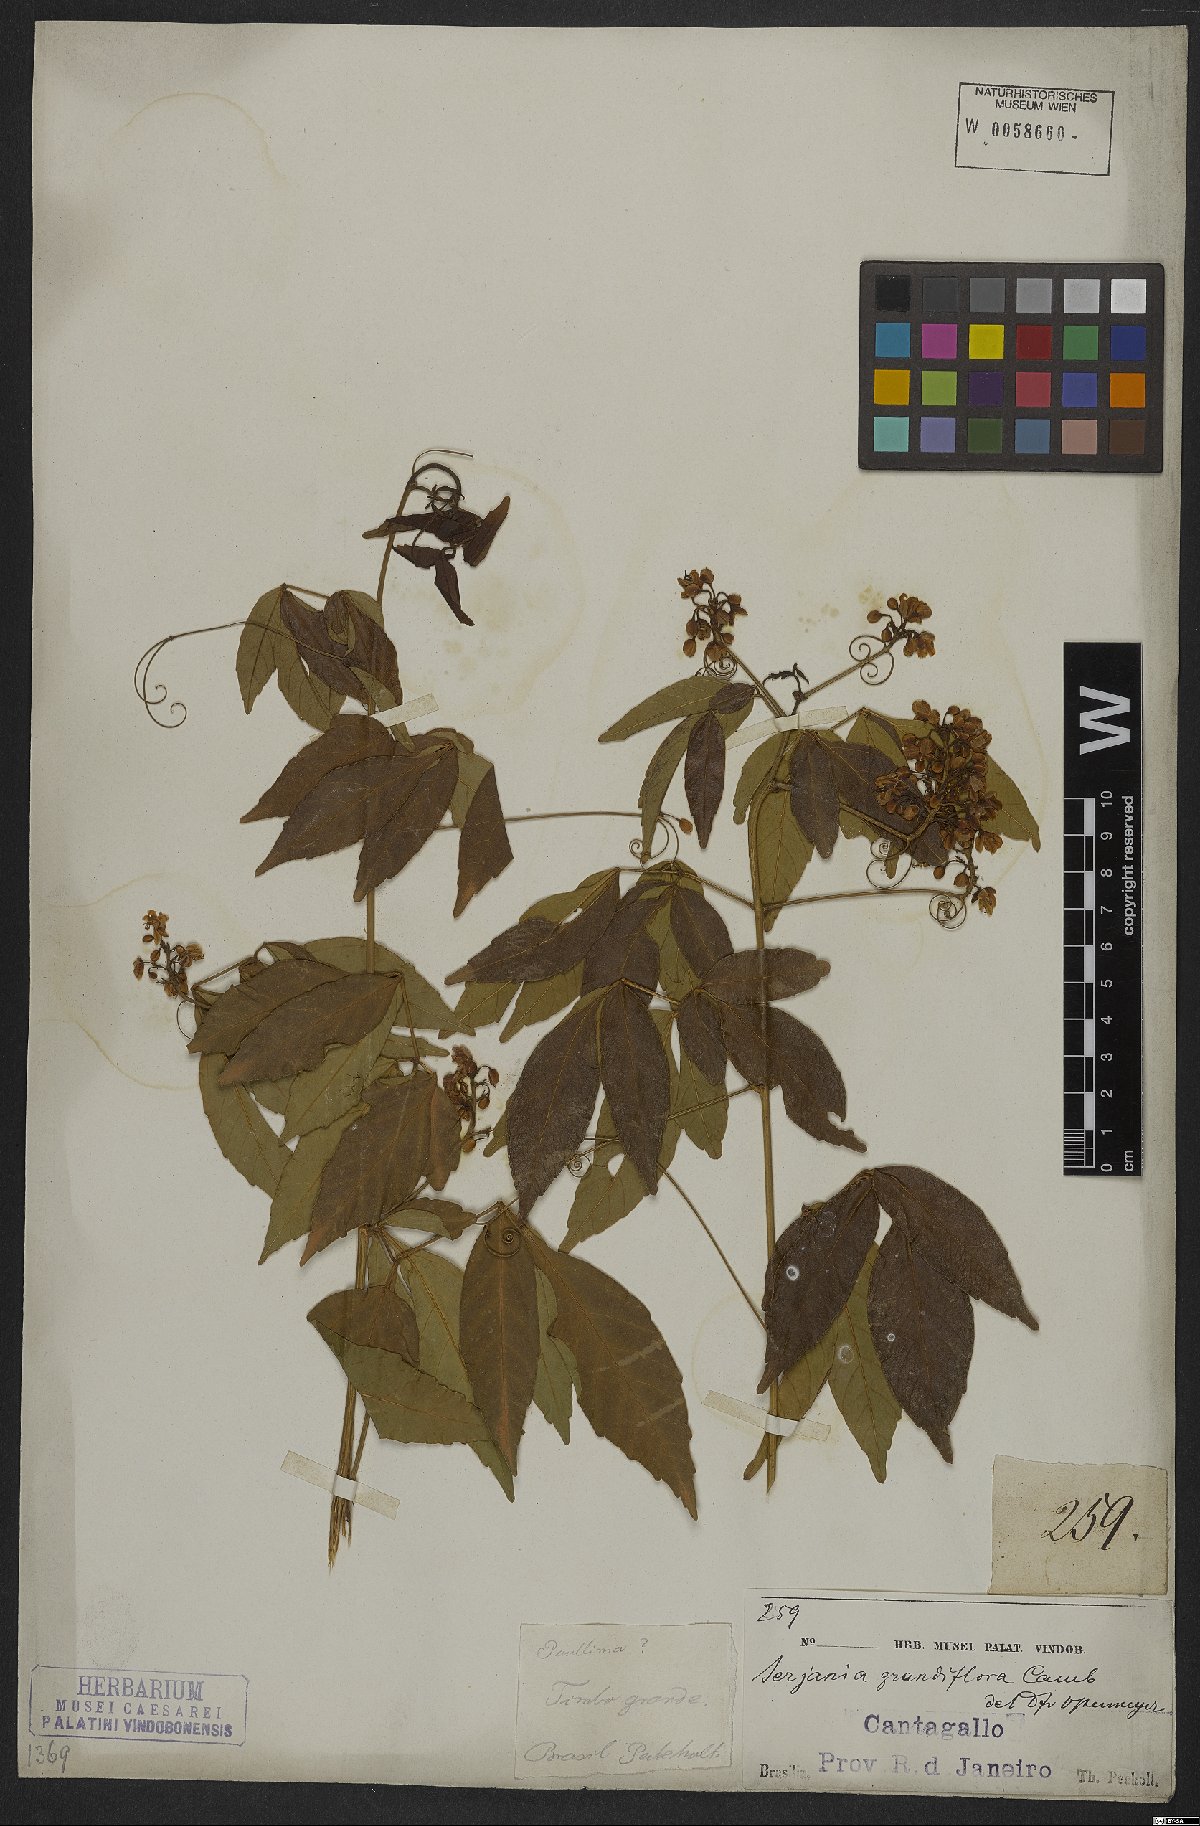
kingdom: Plantae
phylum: Tracheophyta
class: Magnoliopsida
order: Sapindales
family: Sapindaceae
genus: Serjania
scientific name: Serjania caracasana
